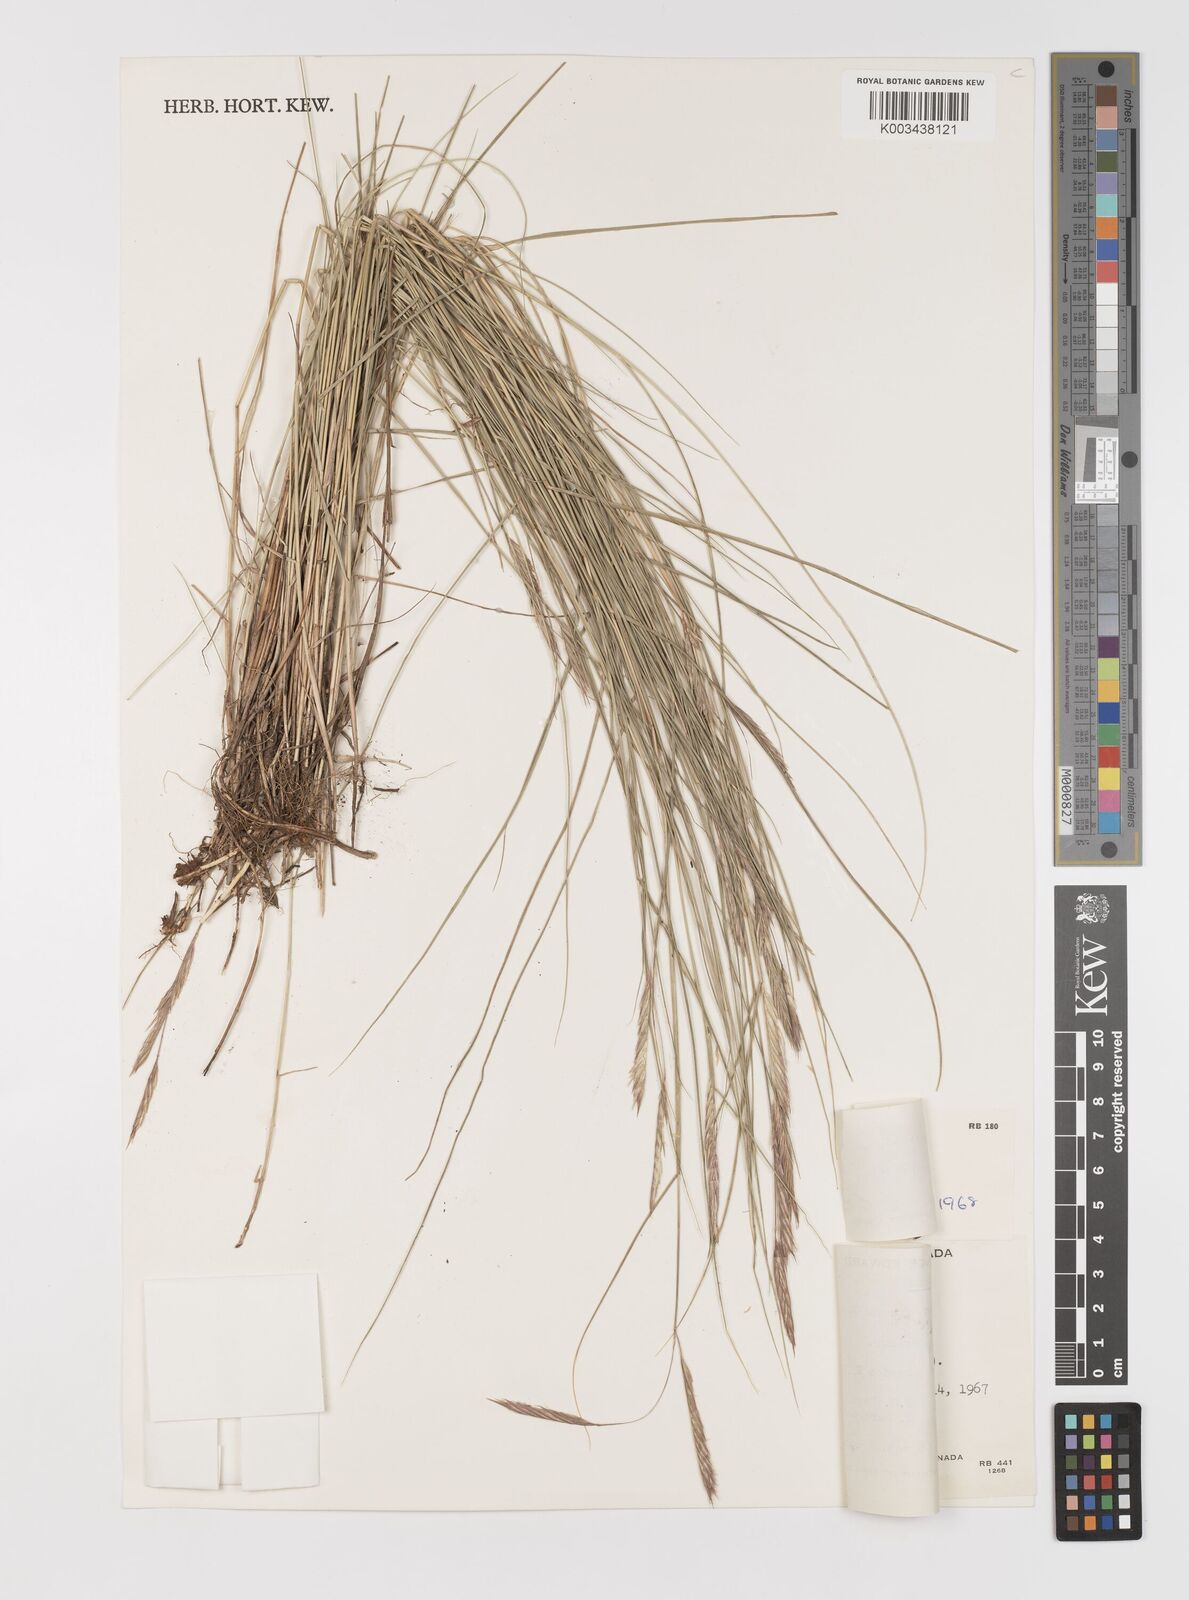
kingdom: Plantae
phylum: Tracheophyta
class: Liliopsida
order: Poales
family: Poaceae
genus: Sporobolus
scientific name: Sporobolus pumilus
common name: Highwater grass
